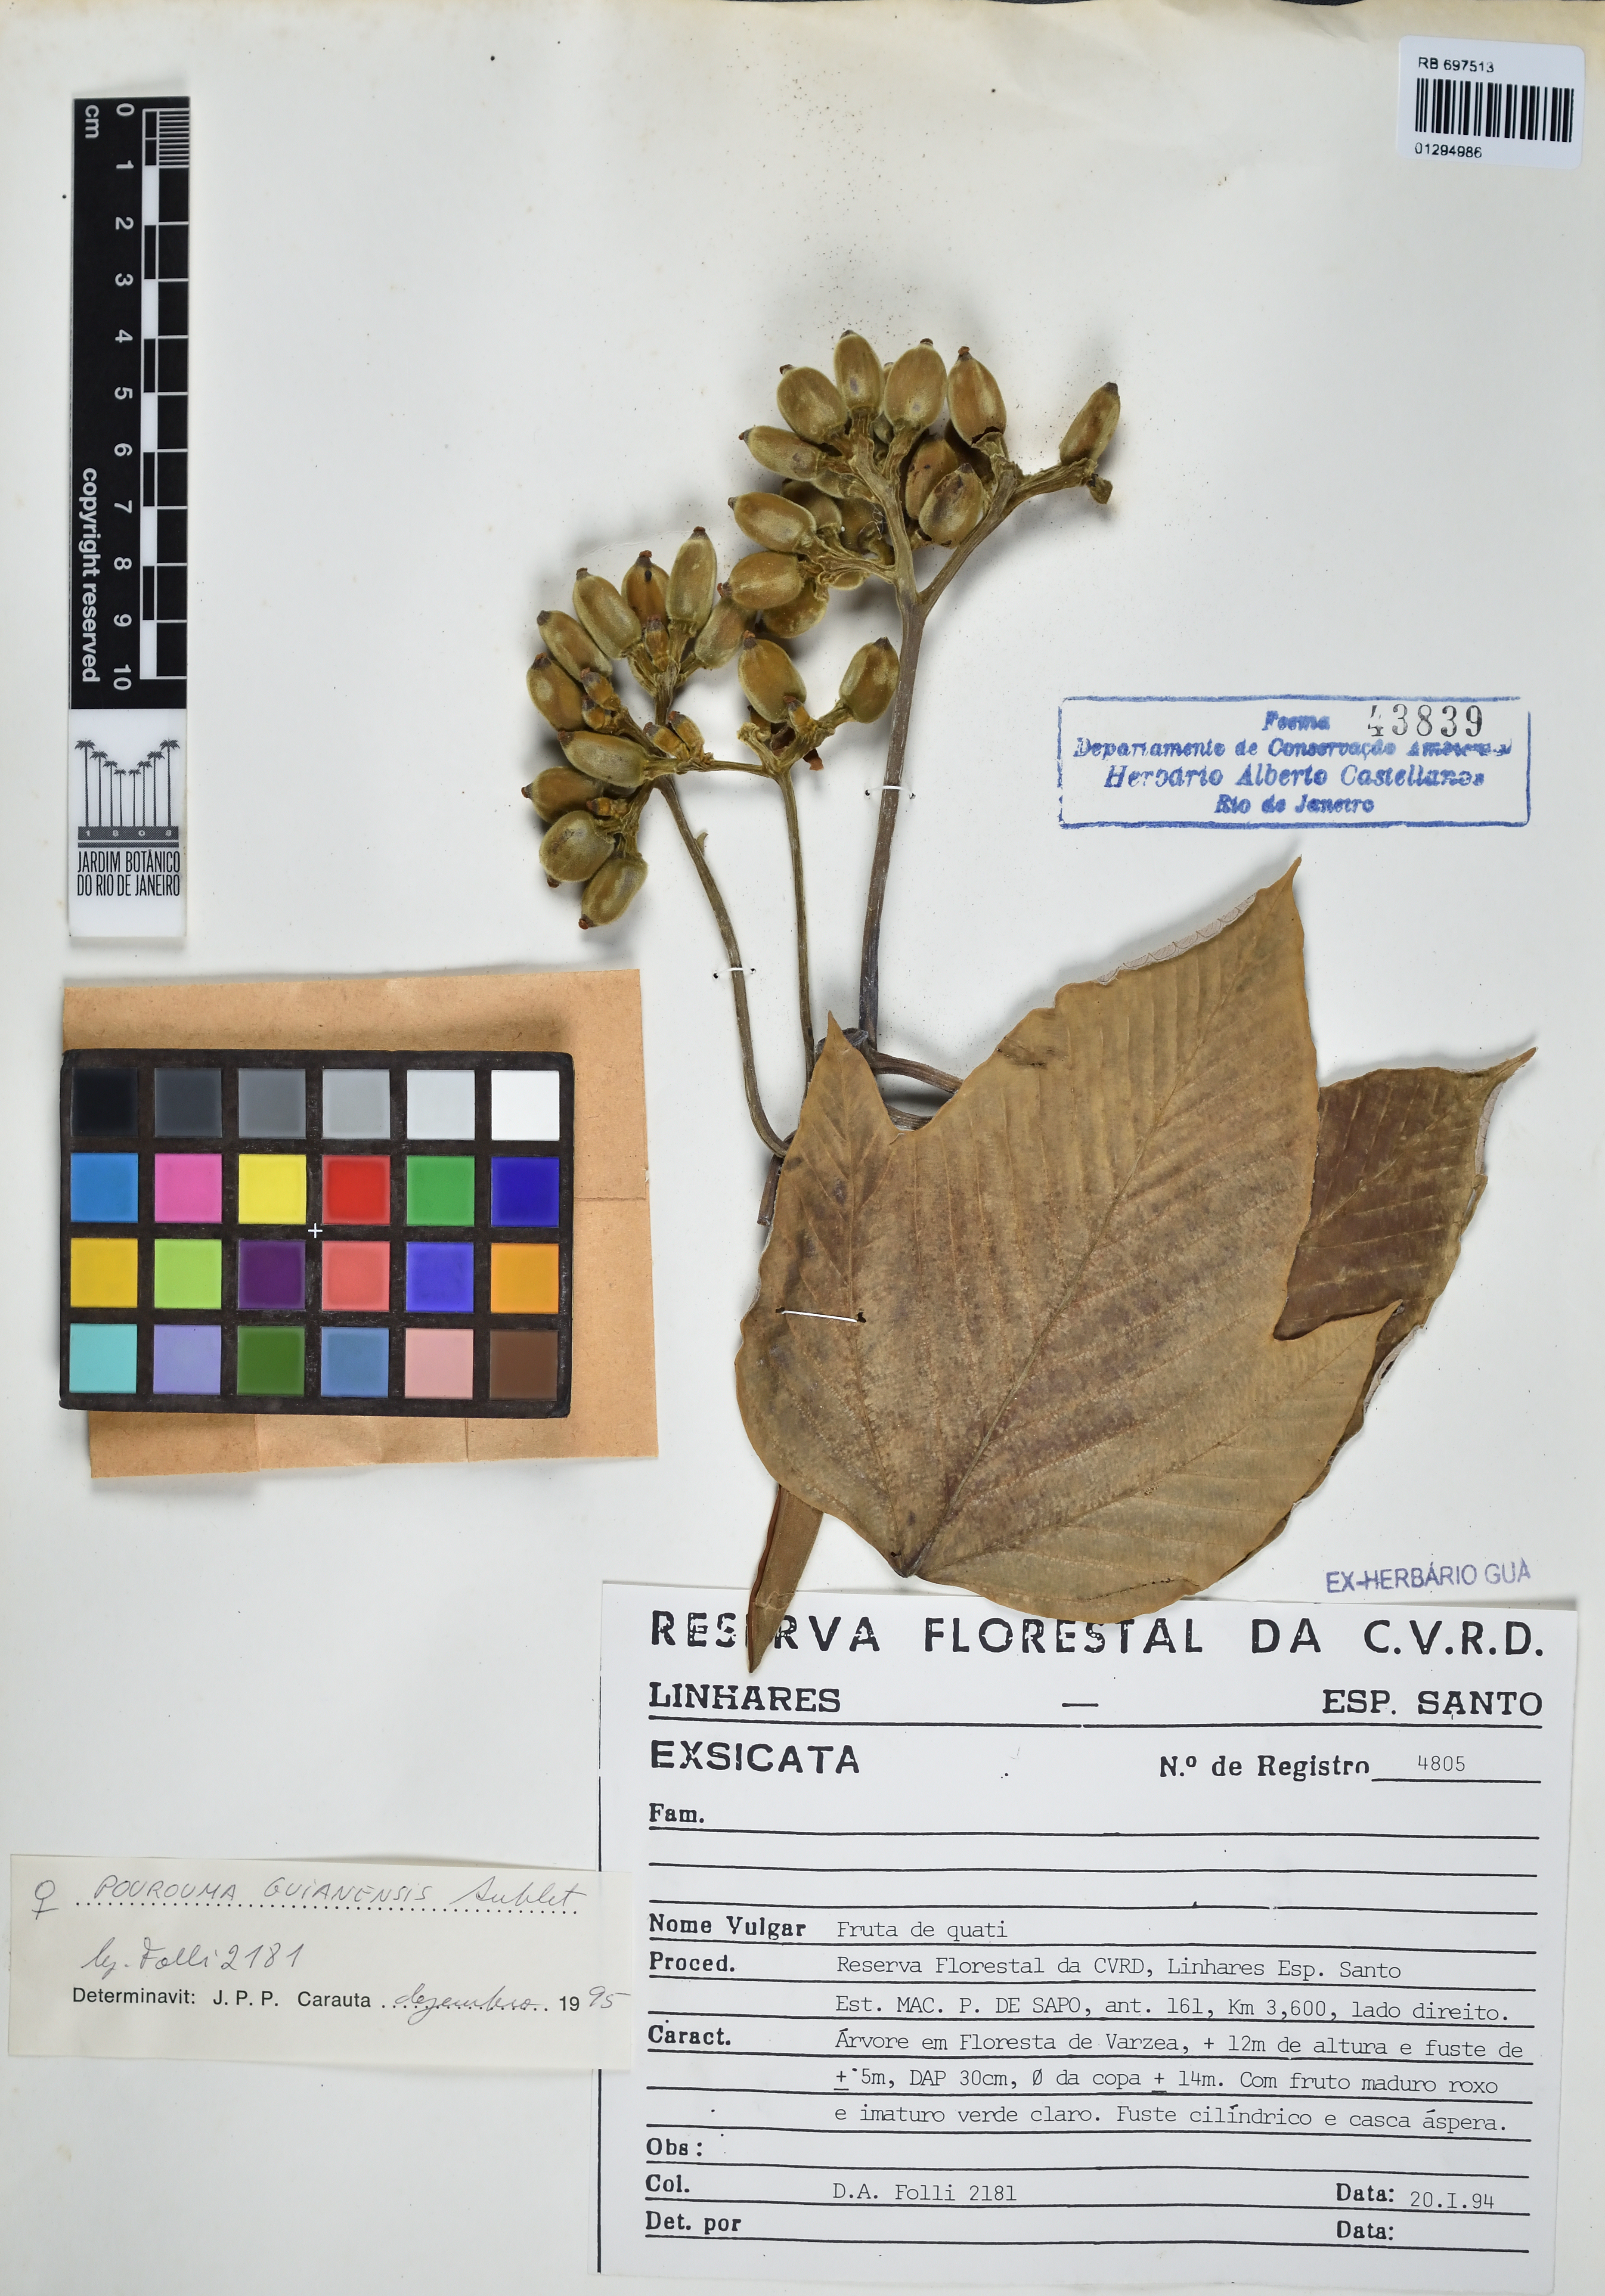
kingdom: Plantae
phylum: Tracheophyta
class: Magnoliopsida
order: Rosales
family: Urticaceae
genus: Pourouma
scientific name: Pourouma guianensis
